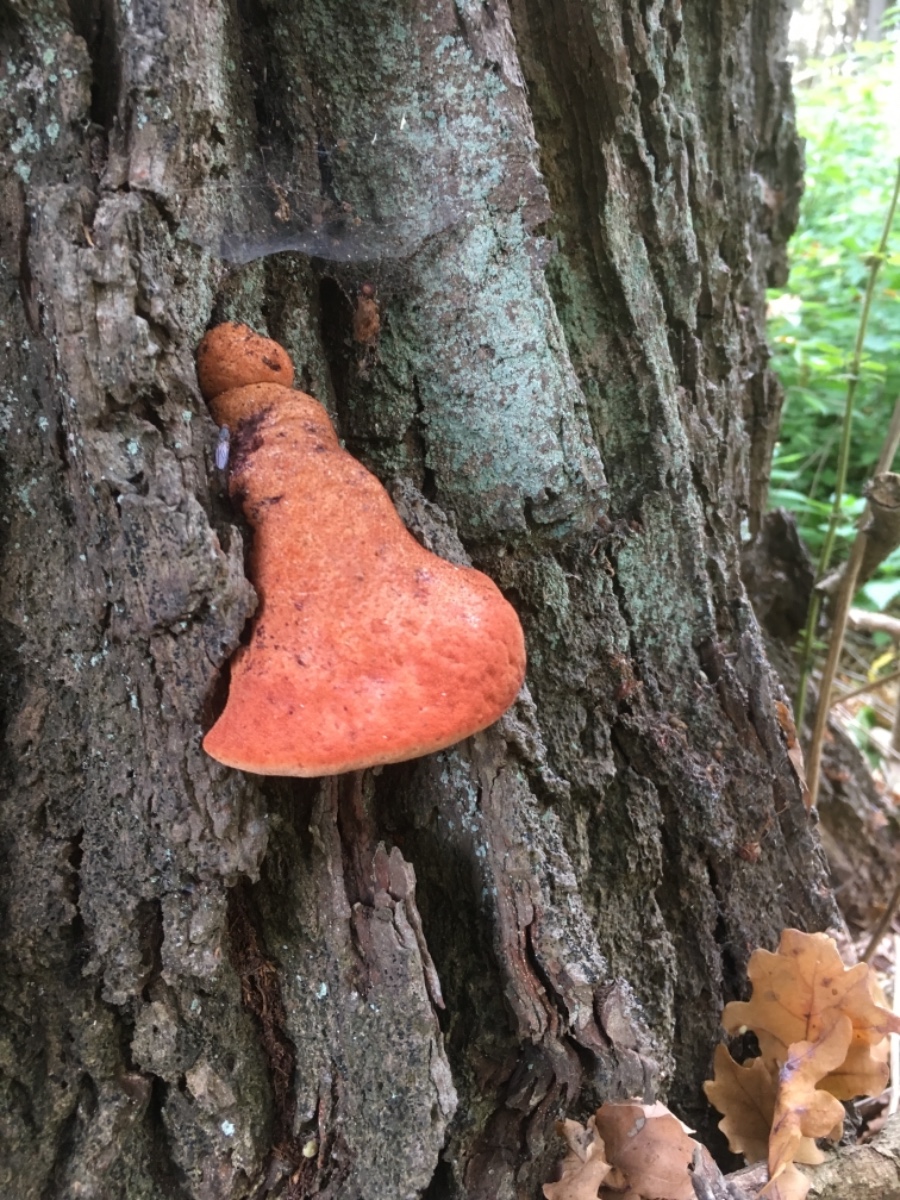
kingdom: Fungi
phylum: Basidiomycota
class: Agaricomycetes
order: Agaricales
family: Fistulinaceae
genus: Fistulina
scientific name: Fistulina hepatica
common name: oksetunge
